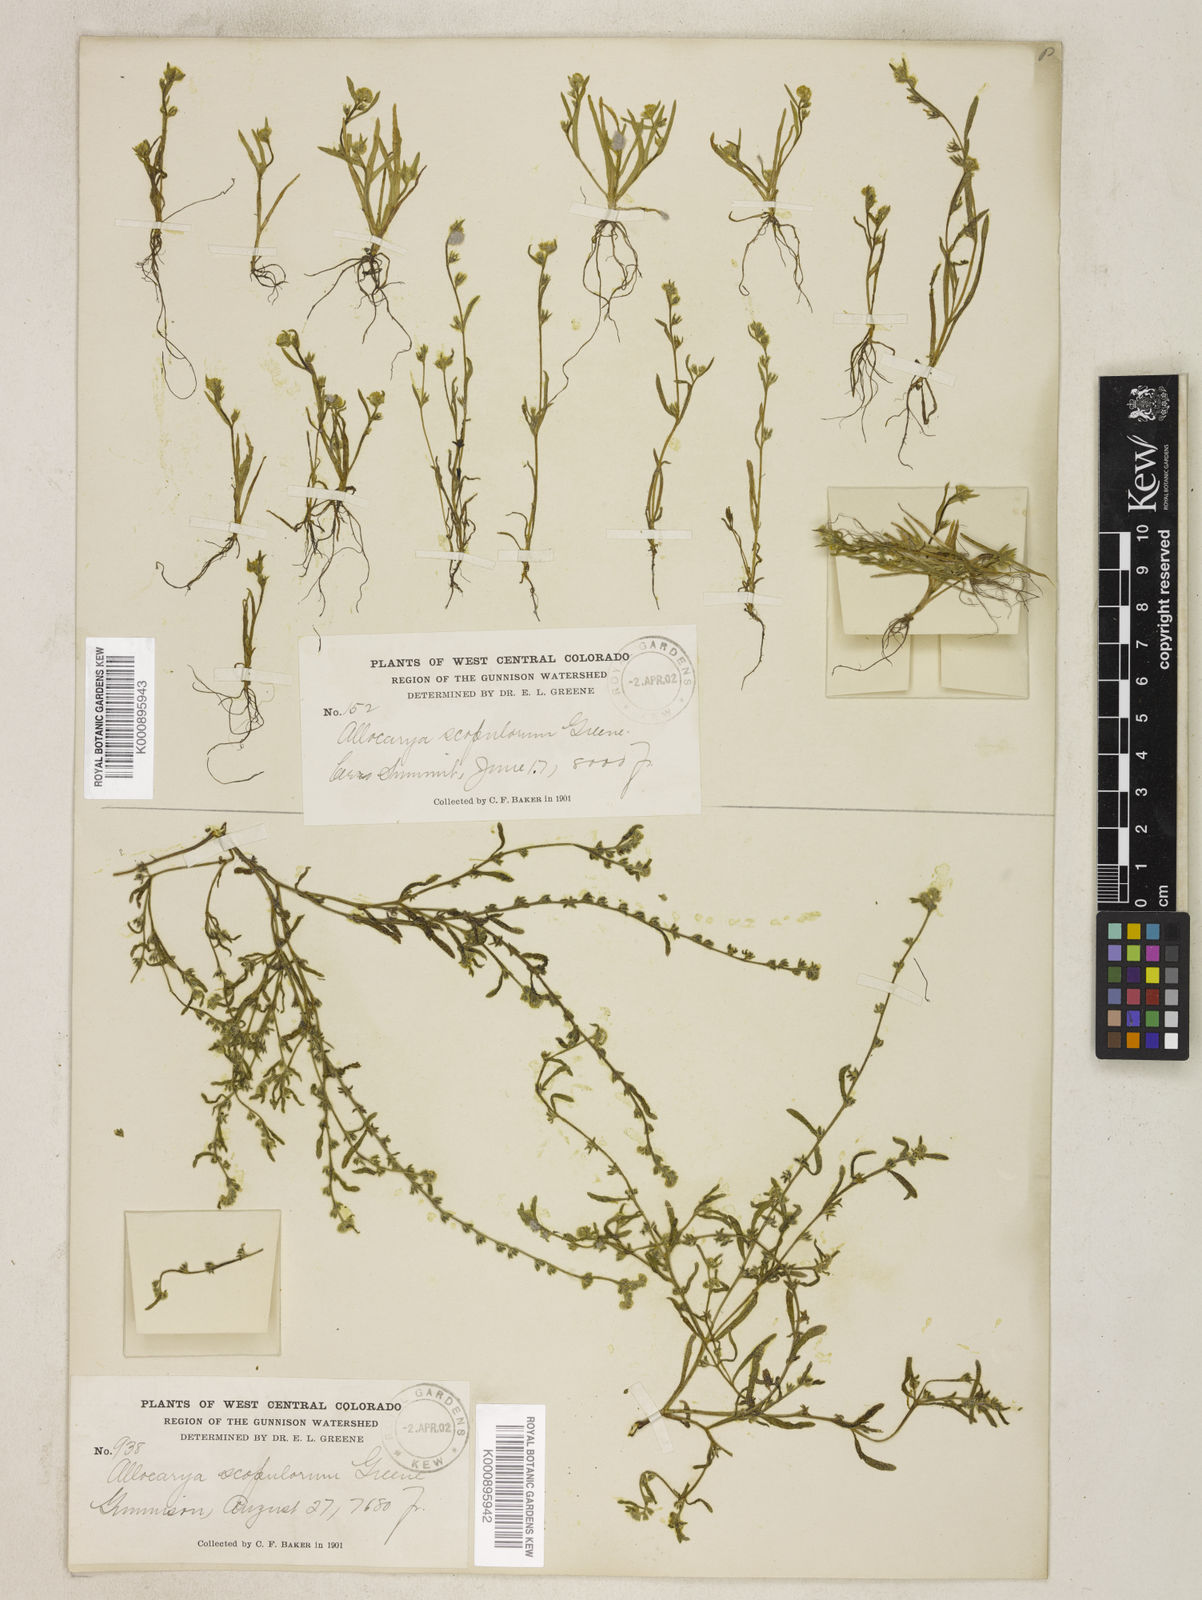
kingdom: Plantae
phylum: Tracheophyta
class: Magnoliopsida
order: Boraginales
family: Boraginaceae
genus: Plagiobothrys
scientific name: Plagiobothrys scouleri
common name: White forget-me-not
